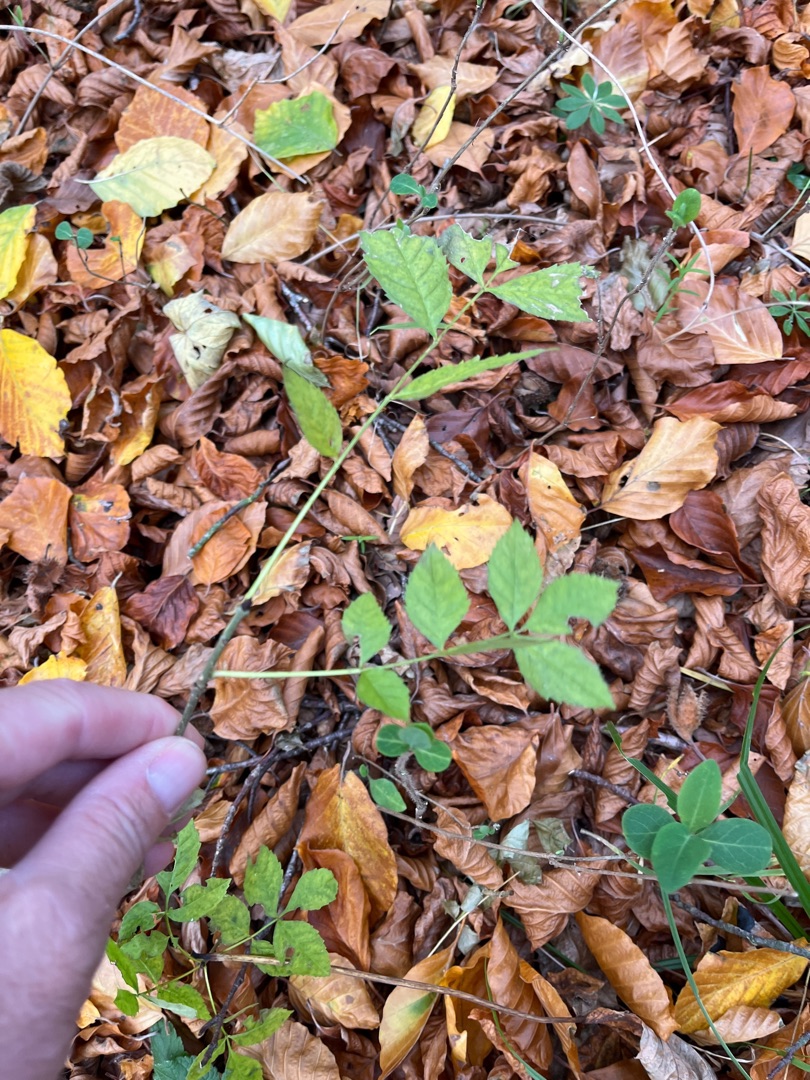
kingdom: Plantae
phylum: Tracheophyta
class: Magnoliopsida
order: Lamiales
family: Oleaceae
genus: Fraxinus
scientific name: Fraxinus excelsior
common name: Ask
